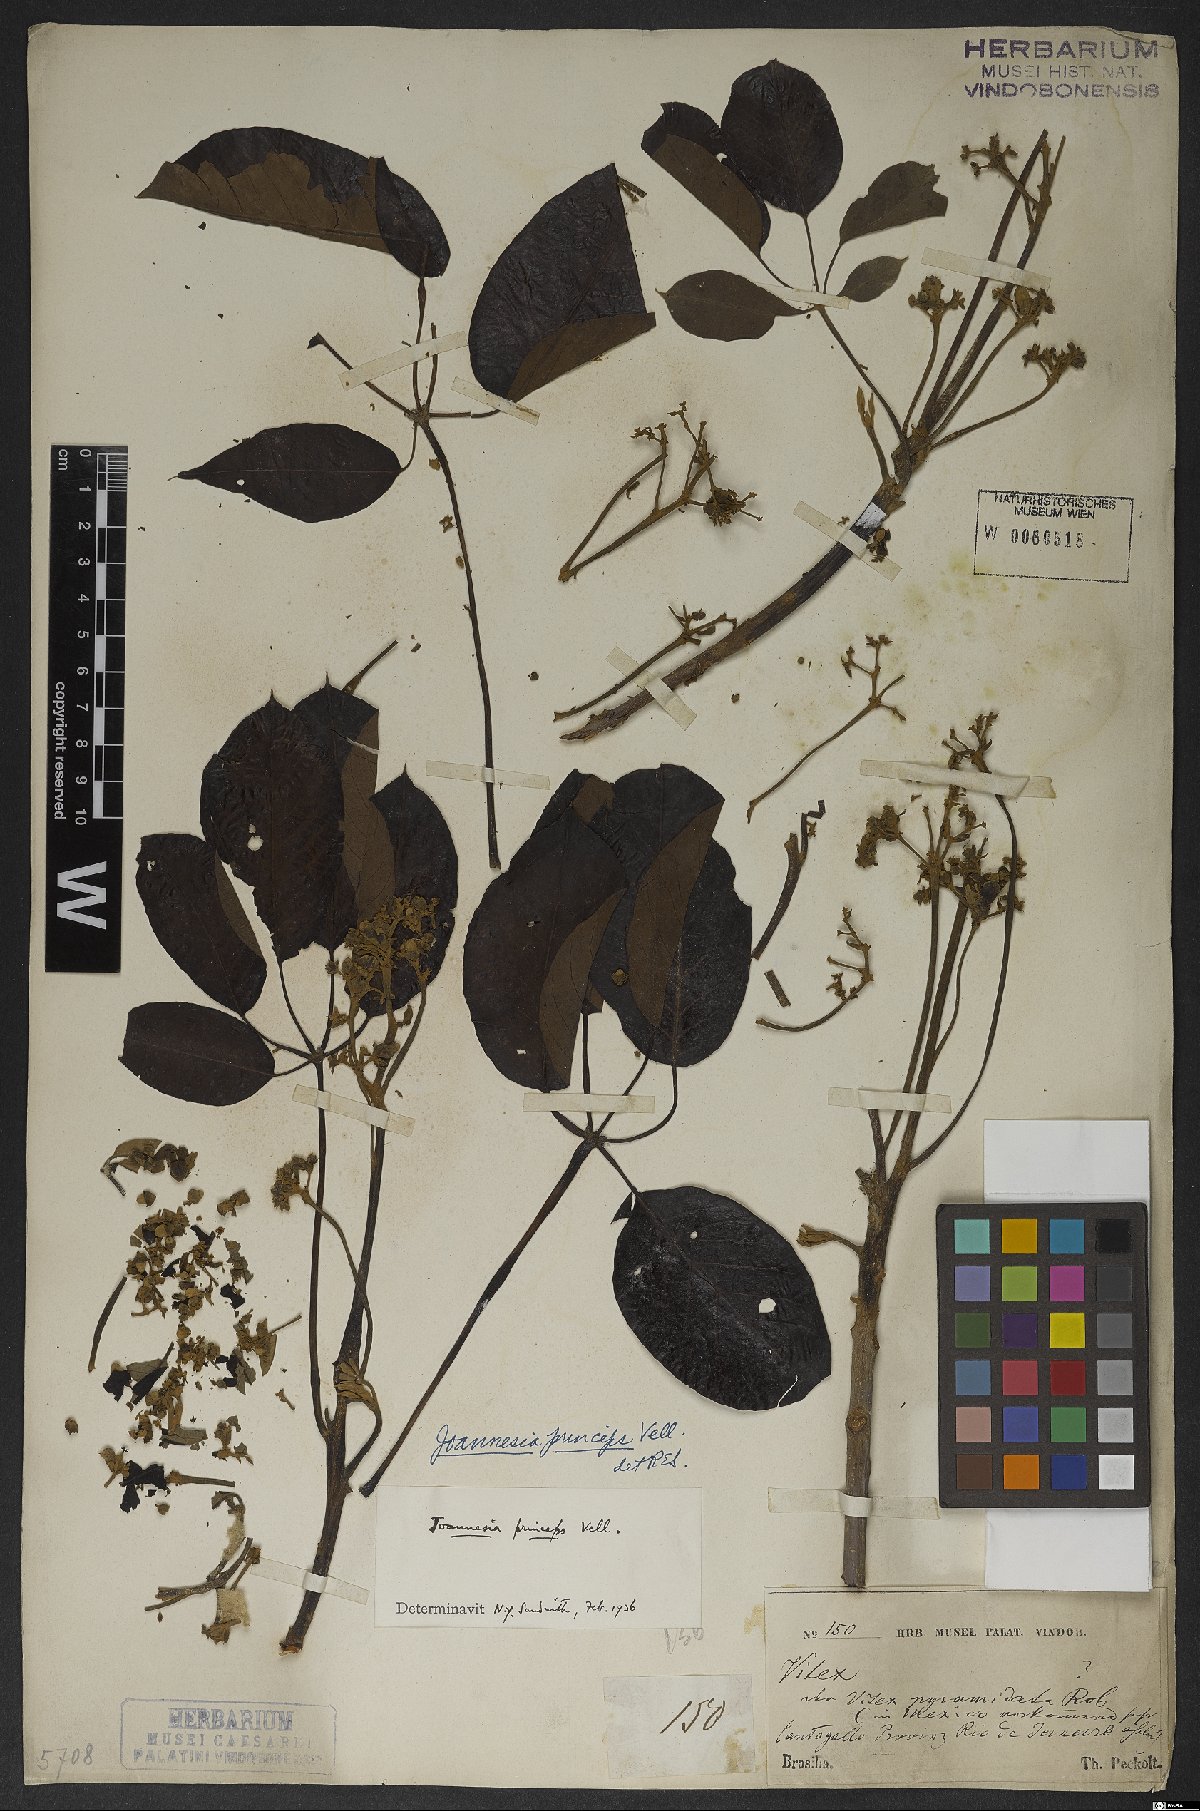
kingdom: Plantae
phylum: Tracheophyta
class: Magnoliopsida
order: Malpighiales
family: Euphorbiaceae
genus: Joannesia
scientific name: Joannesia princeps
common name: Arara nut-tree
